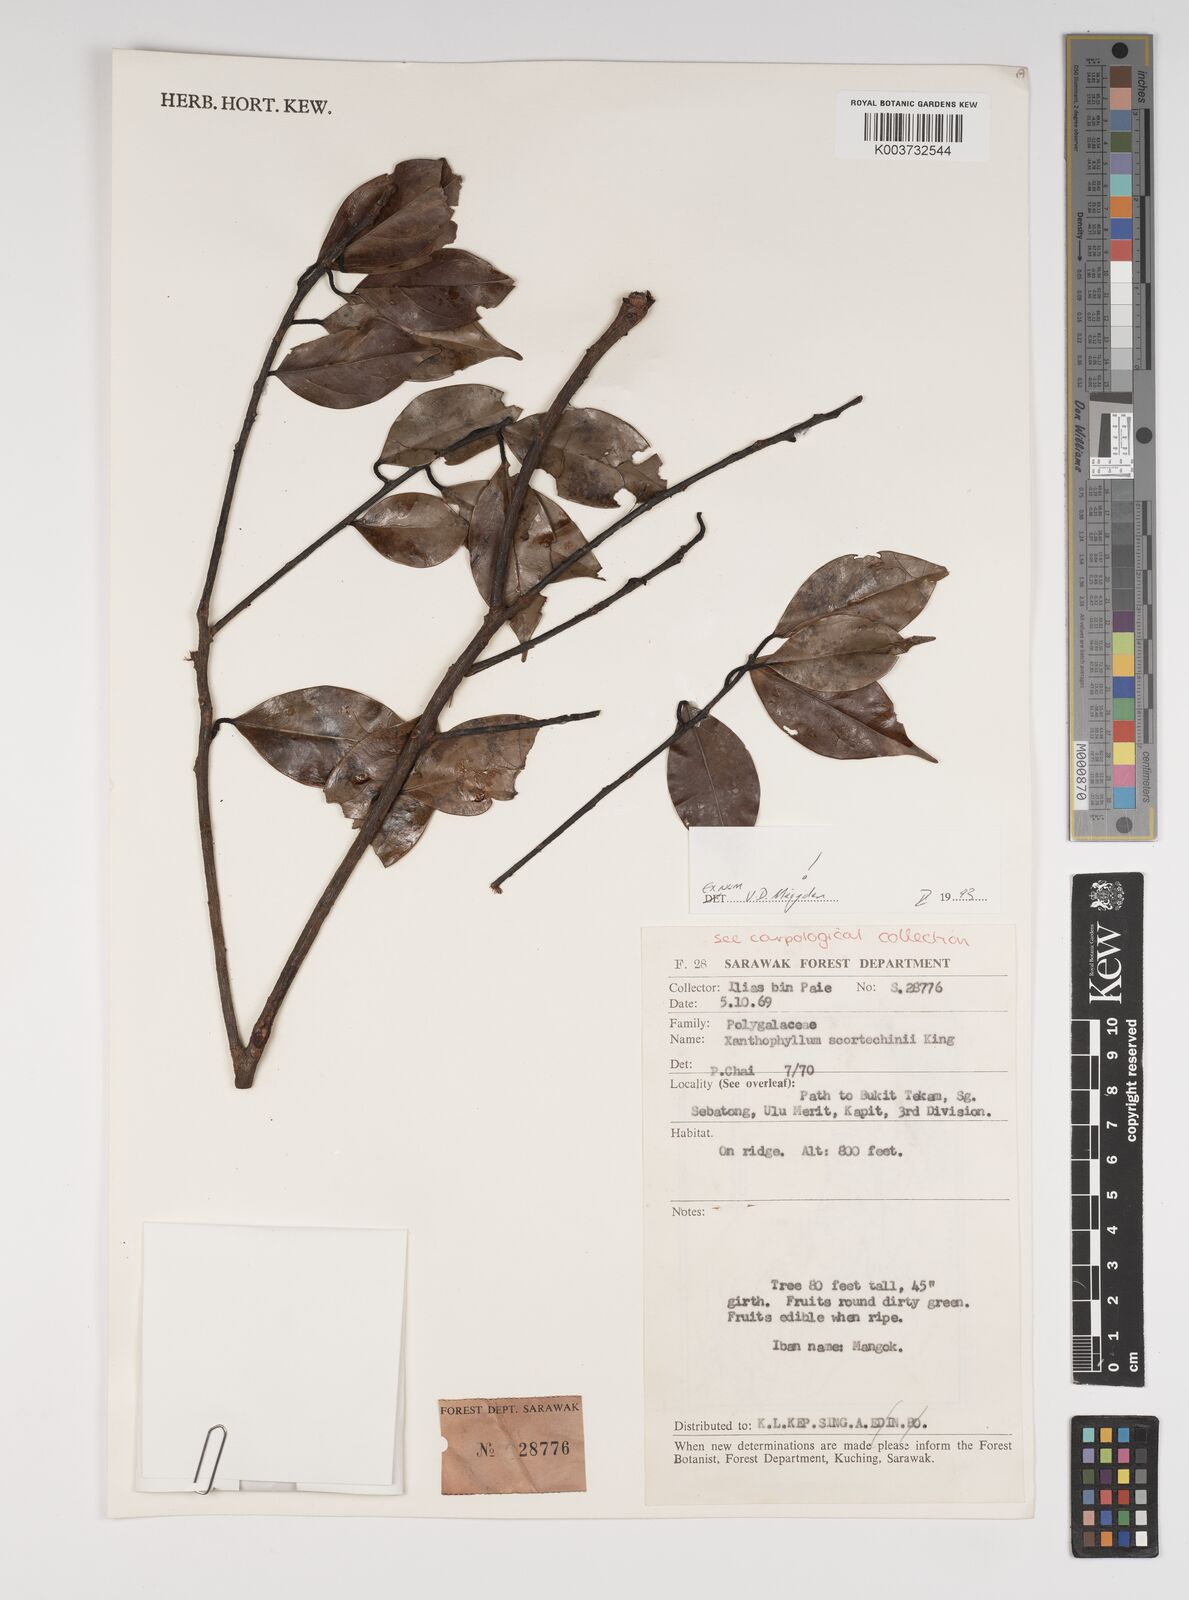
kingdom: Plantae
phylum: Tracheophyta
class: Magnoliopsida
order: Fabales
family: Polygalaceae
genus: Xanthophyllum
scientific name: Xanthophyllum obscurum
